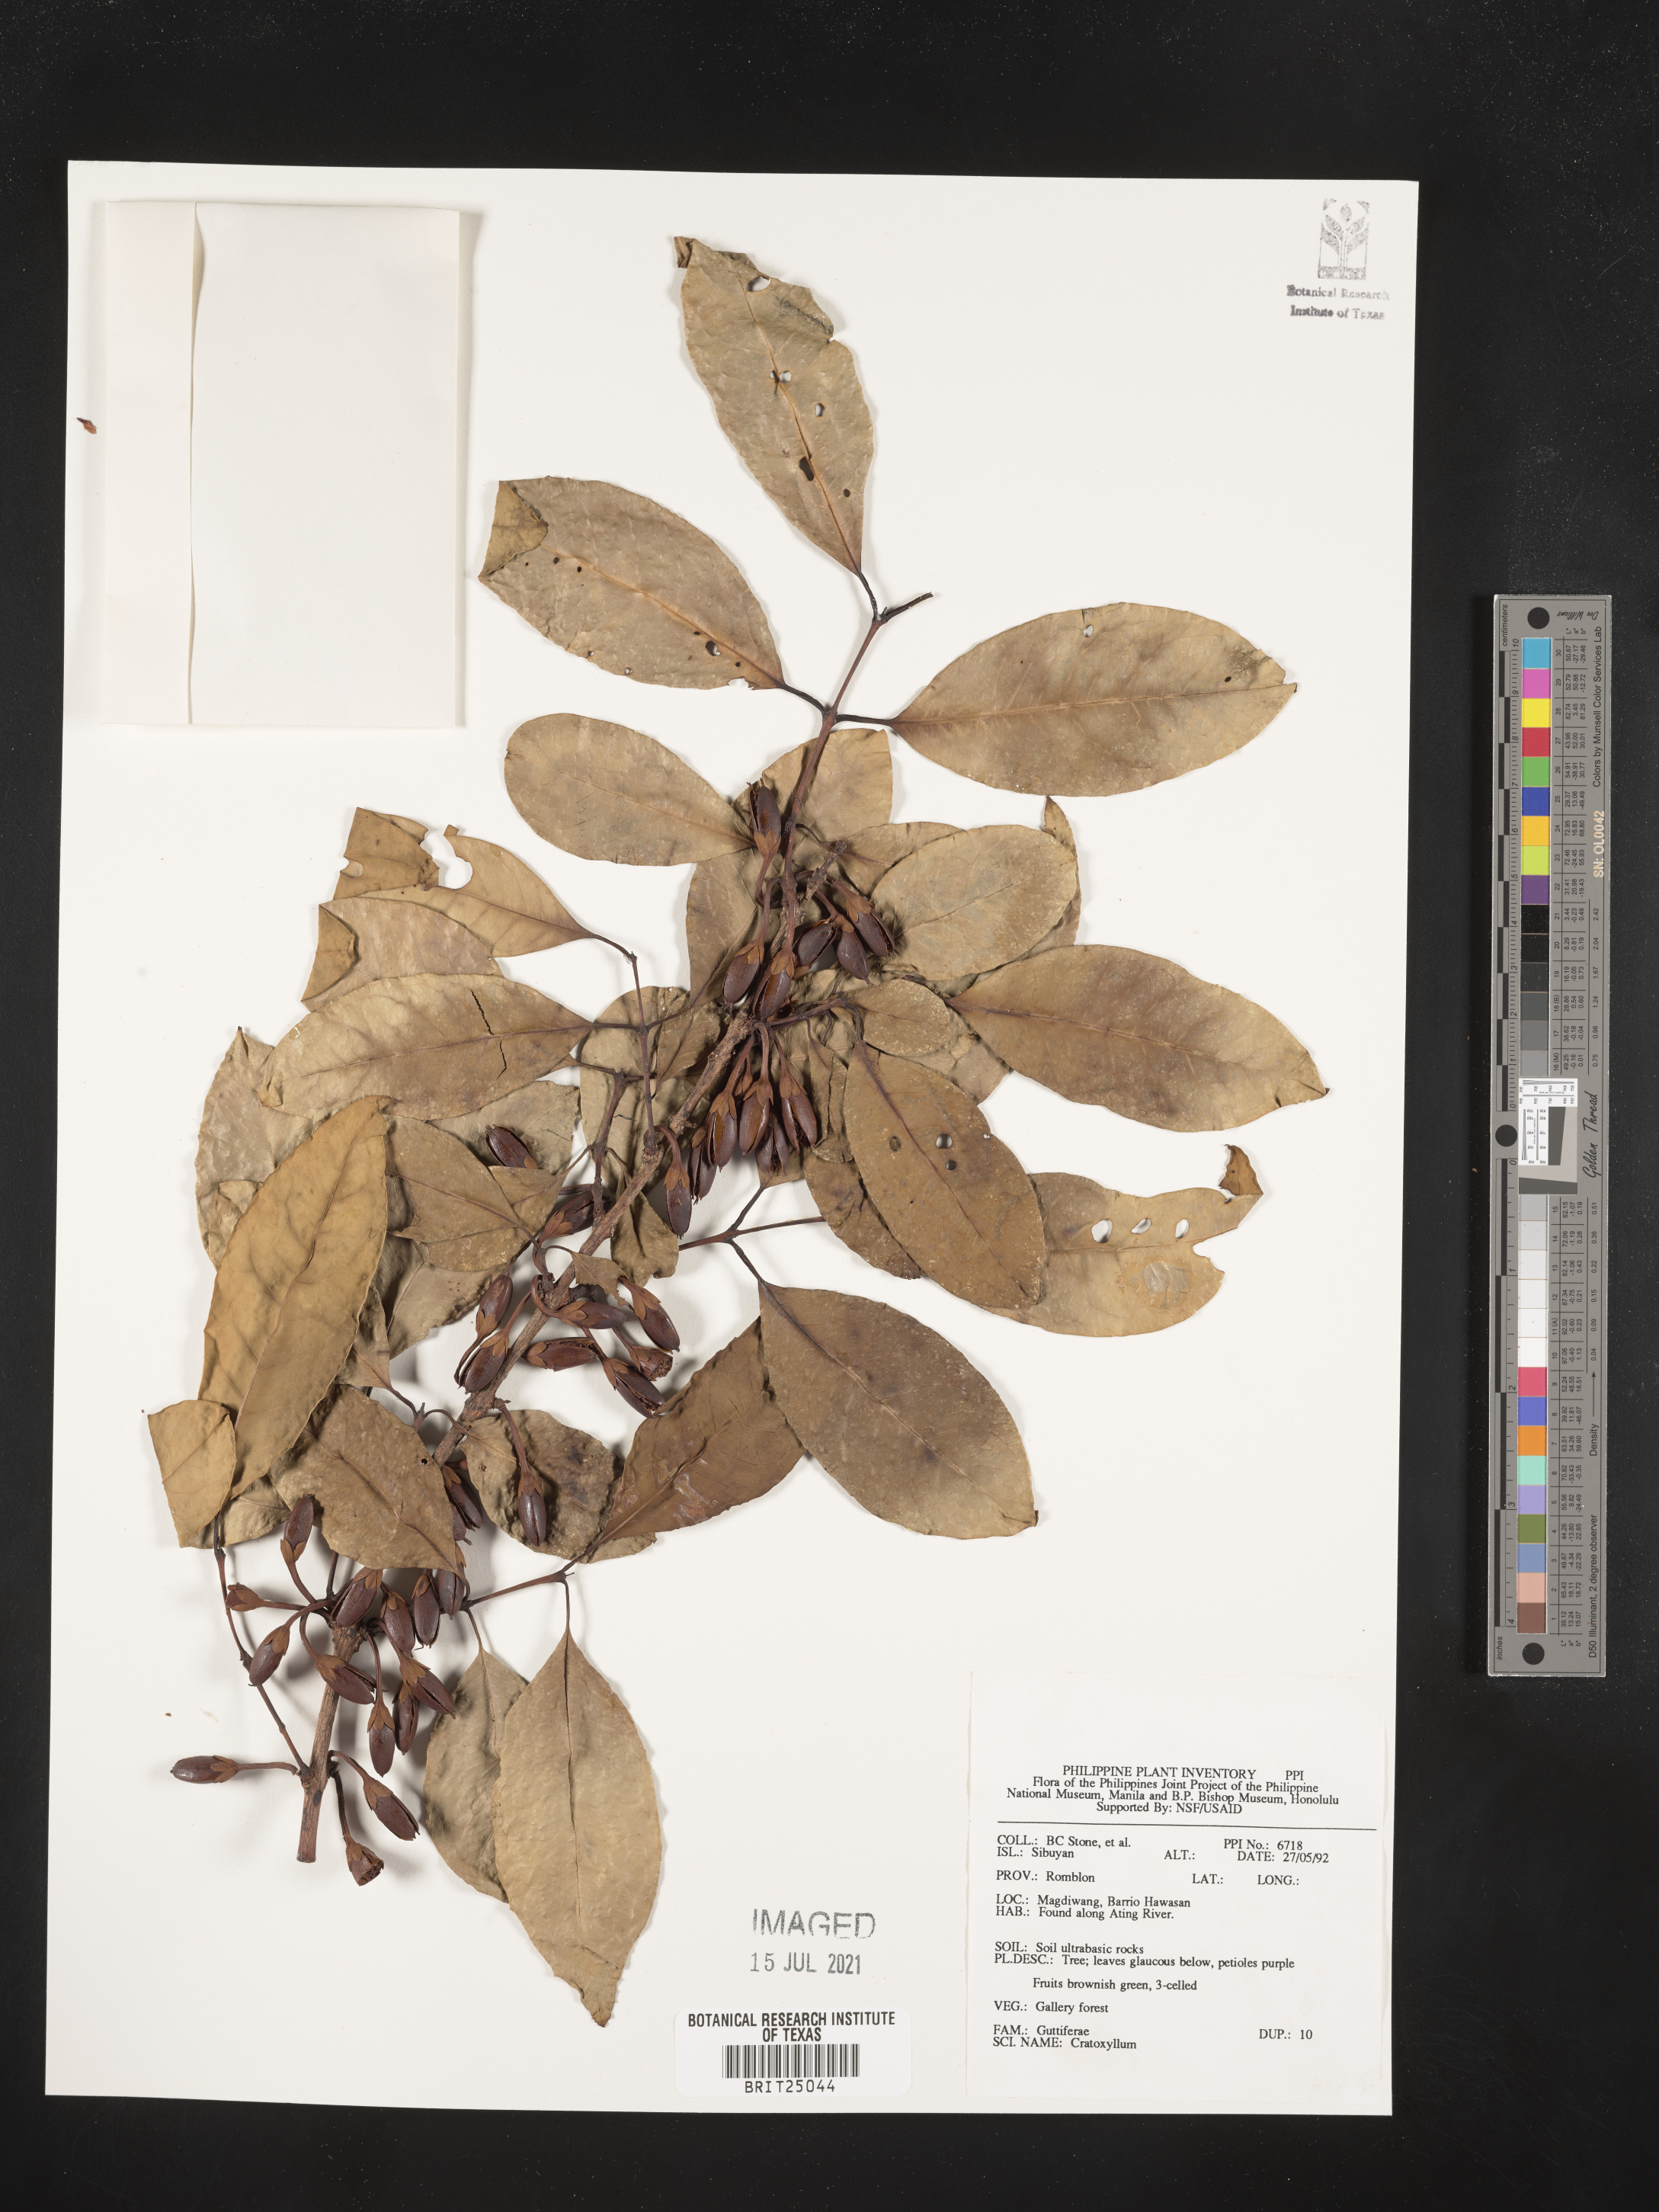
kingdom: Plantae
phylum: Tracheophyta
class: Magnoliopsida
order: Malpighiales
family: Hypericaceae
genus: Cratoxylum
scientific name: Cratoxylum
